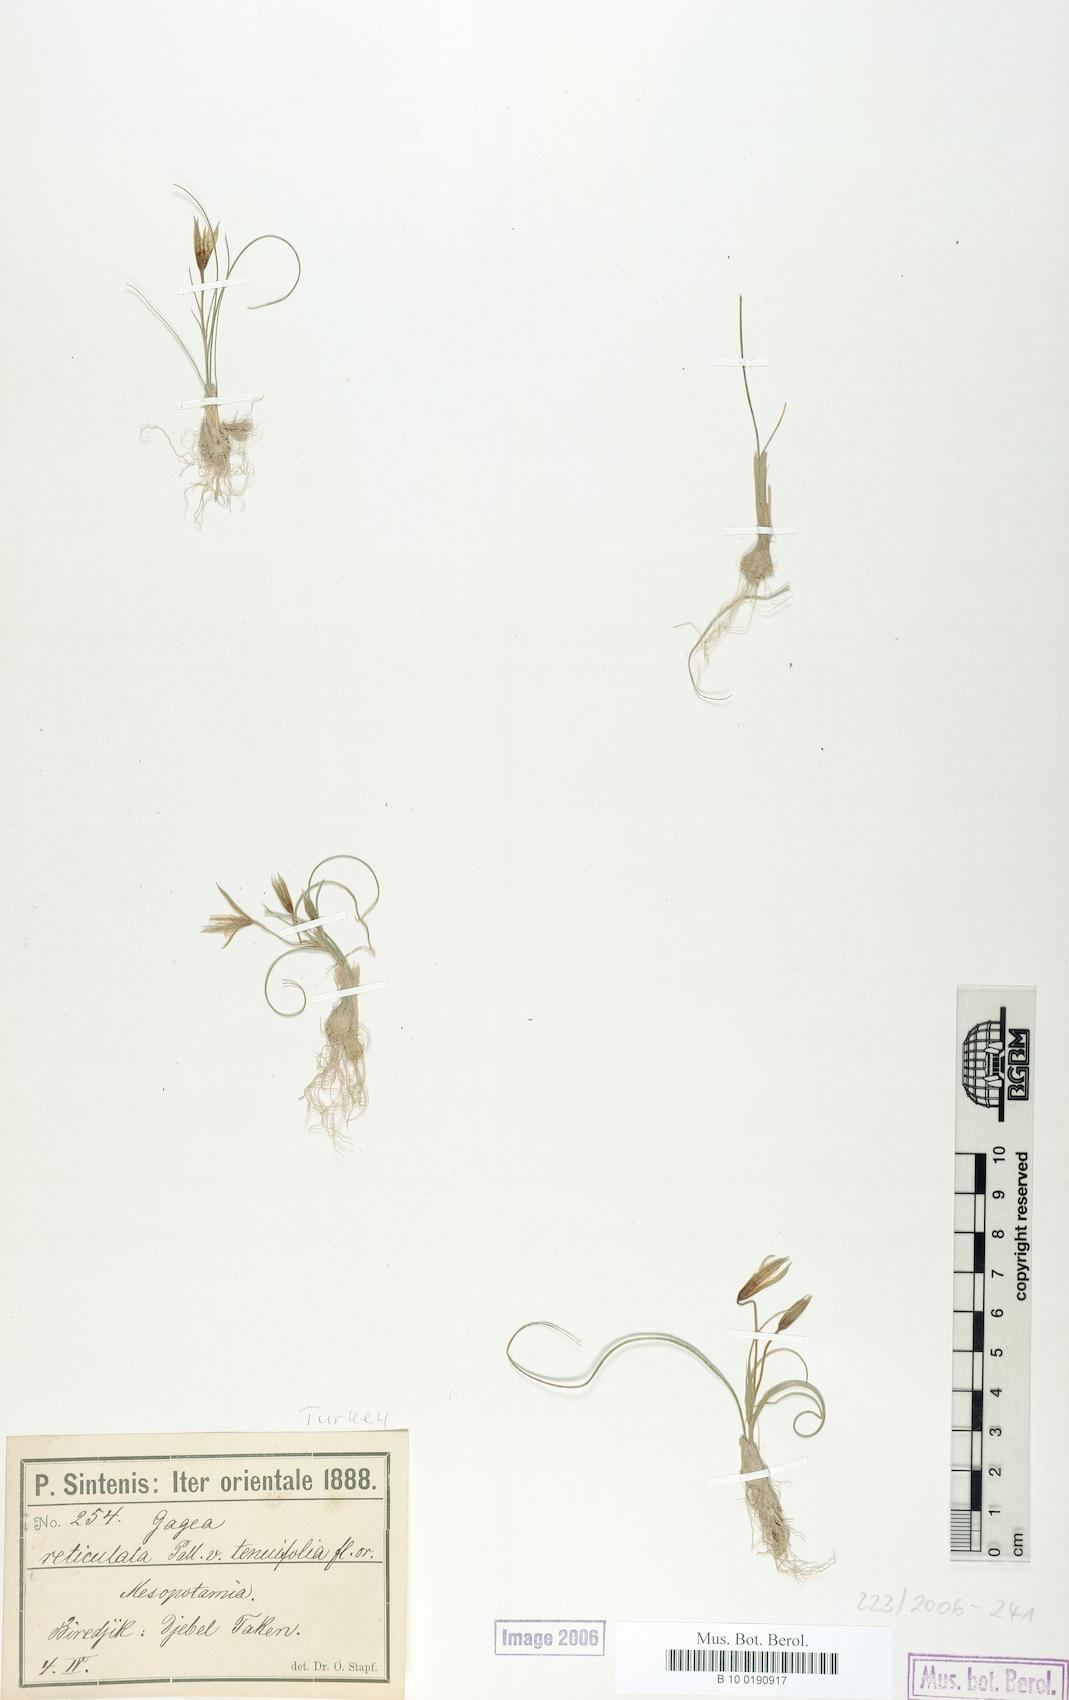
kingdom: Plantae
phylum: Tracheophyta
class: Liliopsida
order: Liliales
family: Liliaceae
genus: Gagea
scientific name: Gagea reticulata
